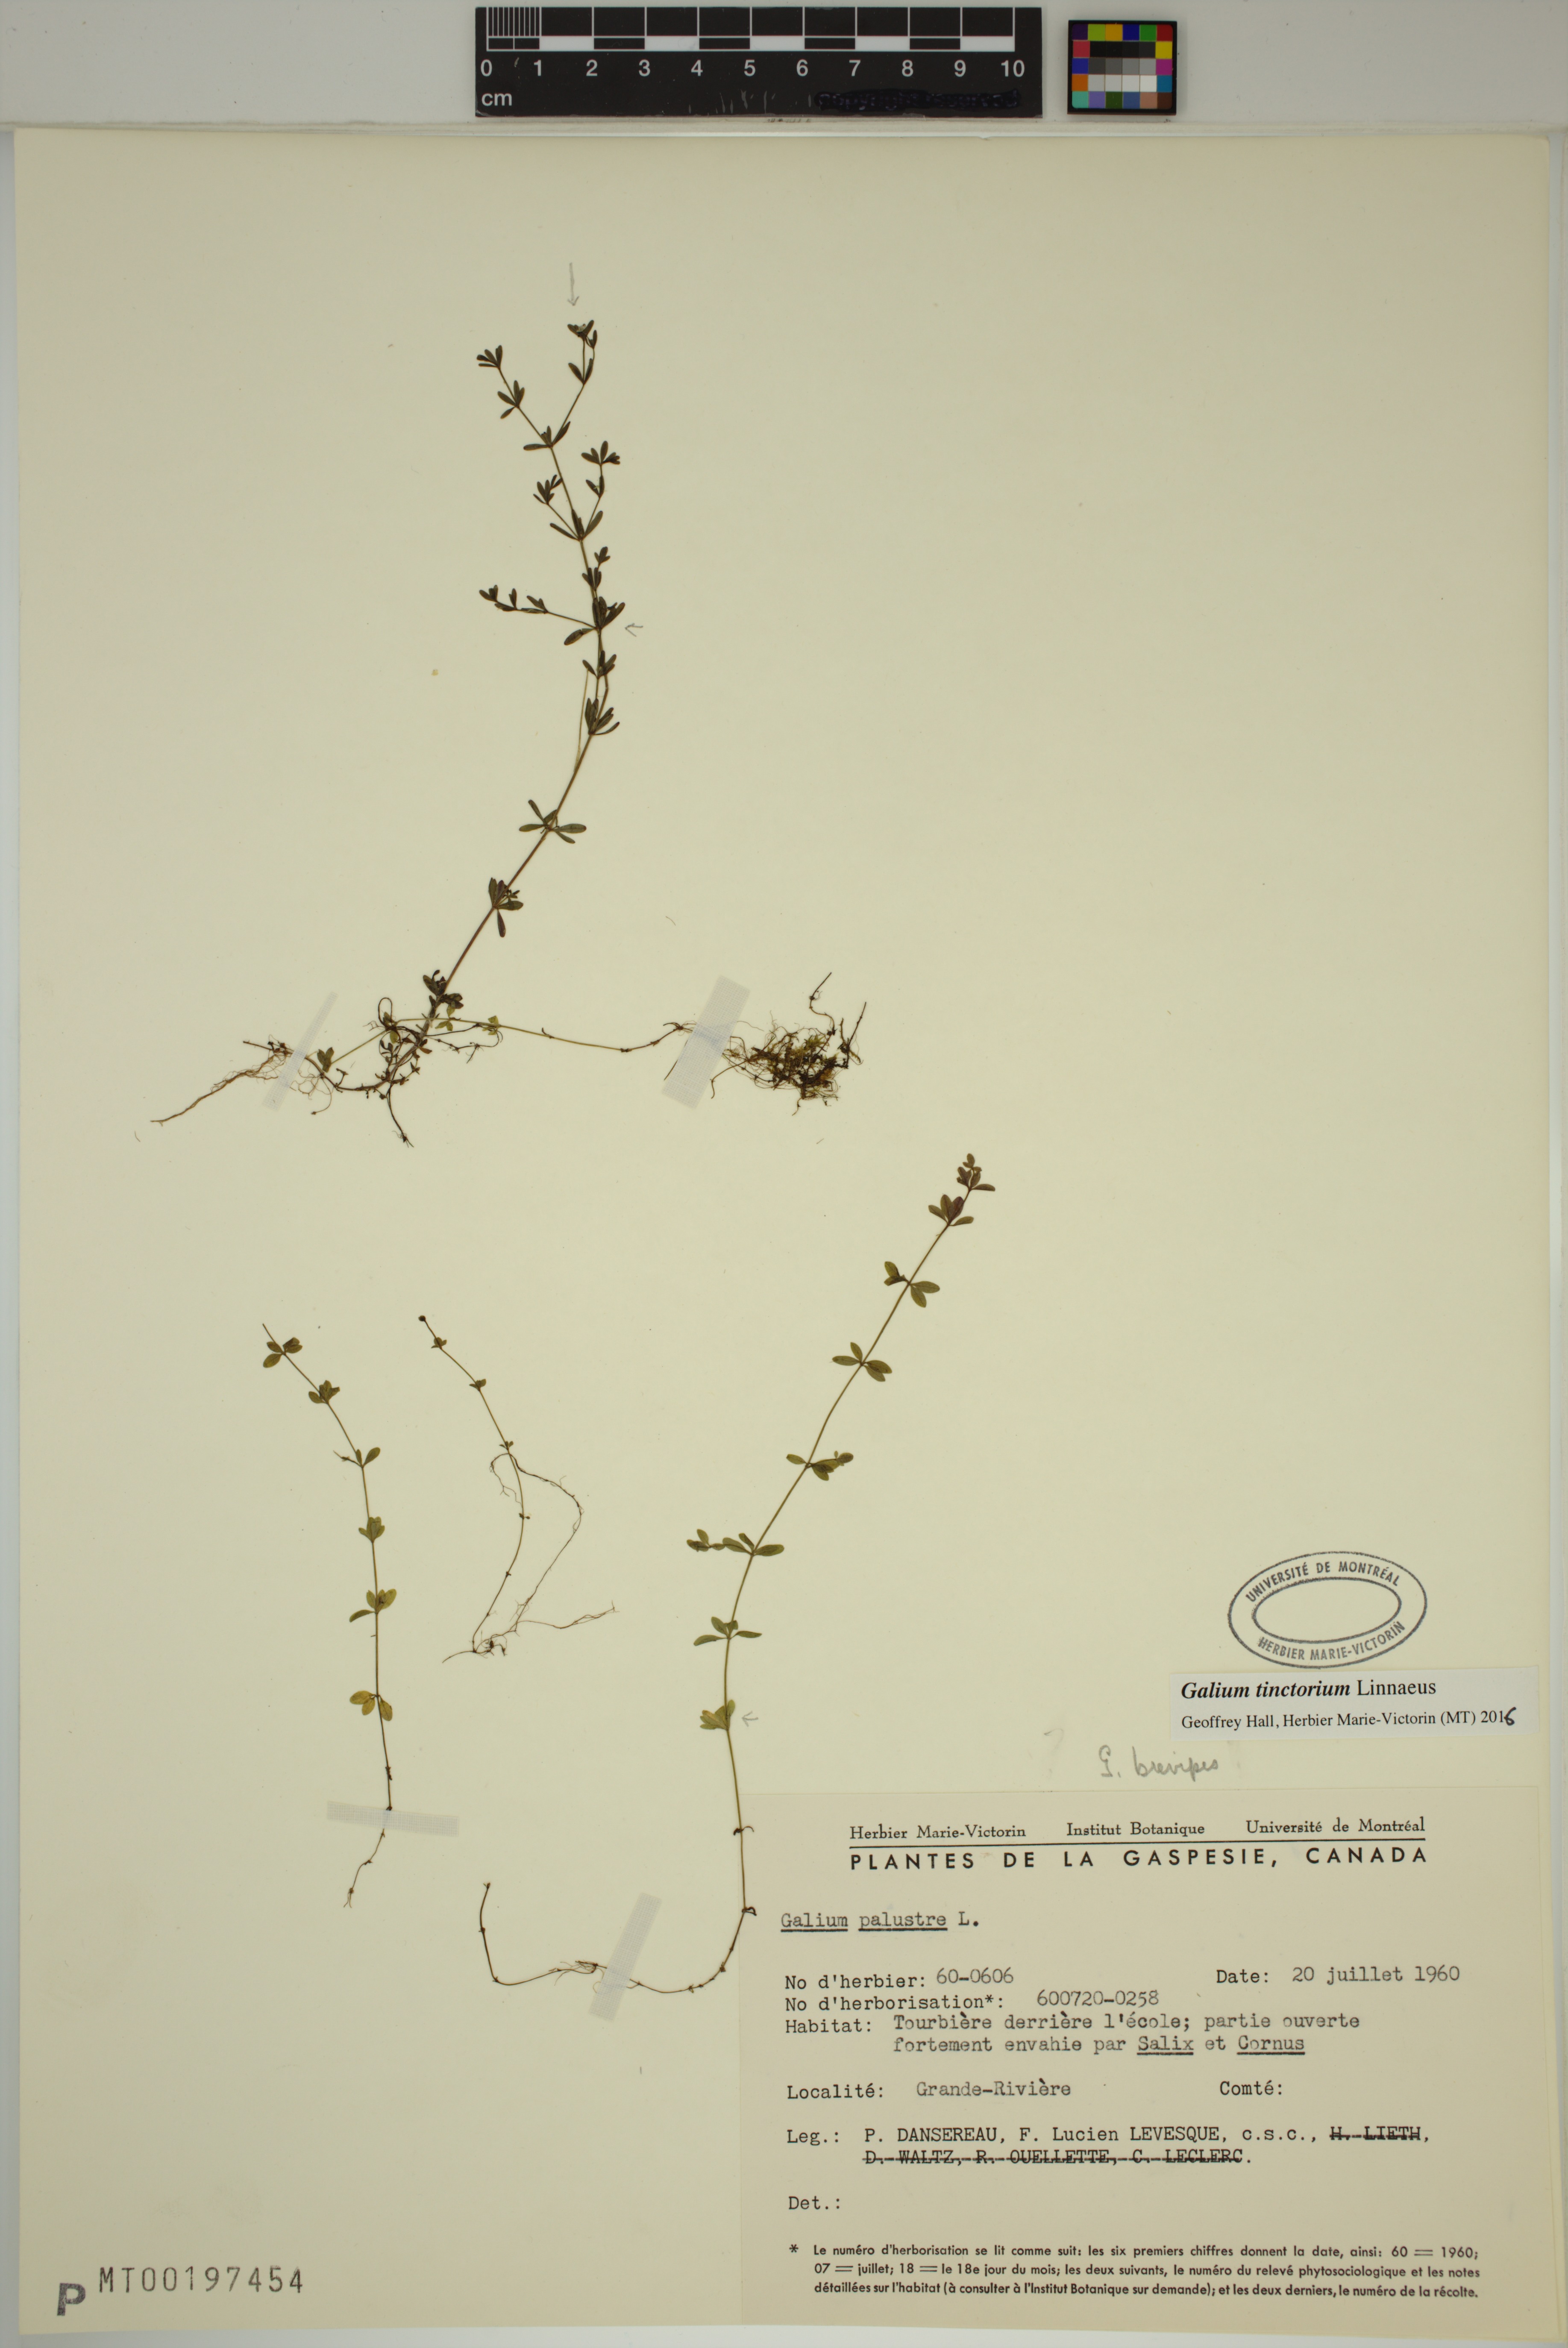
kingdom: Plantae
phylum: Tracheophyta
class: Magnoliopsida
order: Gentianales
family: Rubiaceae
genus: Galium
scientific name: Galium tinctorium
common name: Bedstraw
